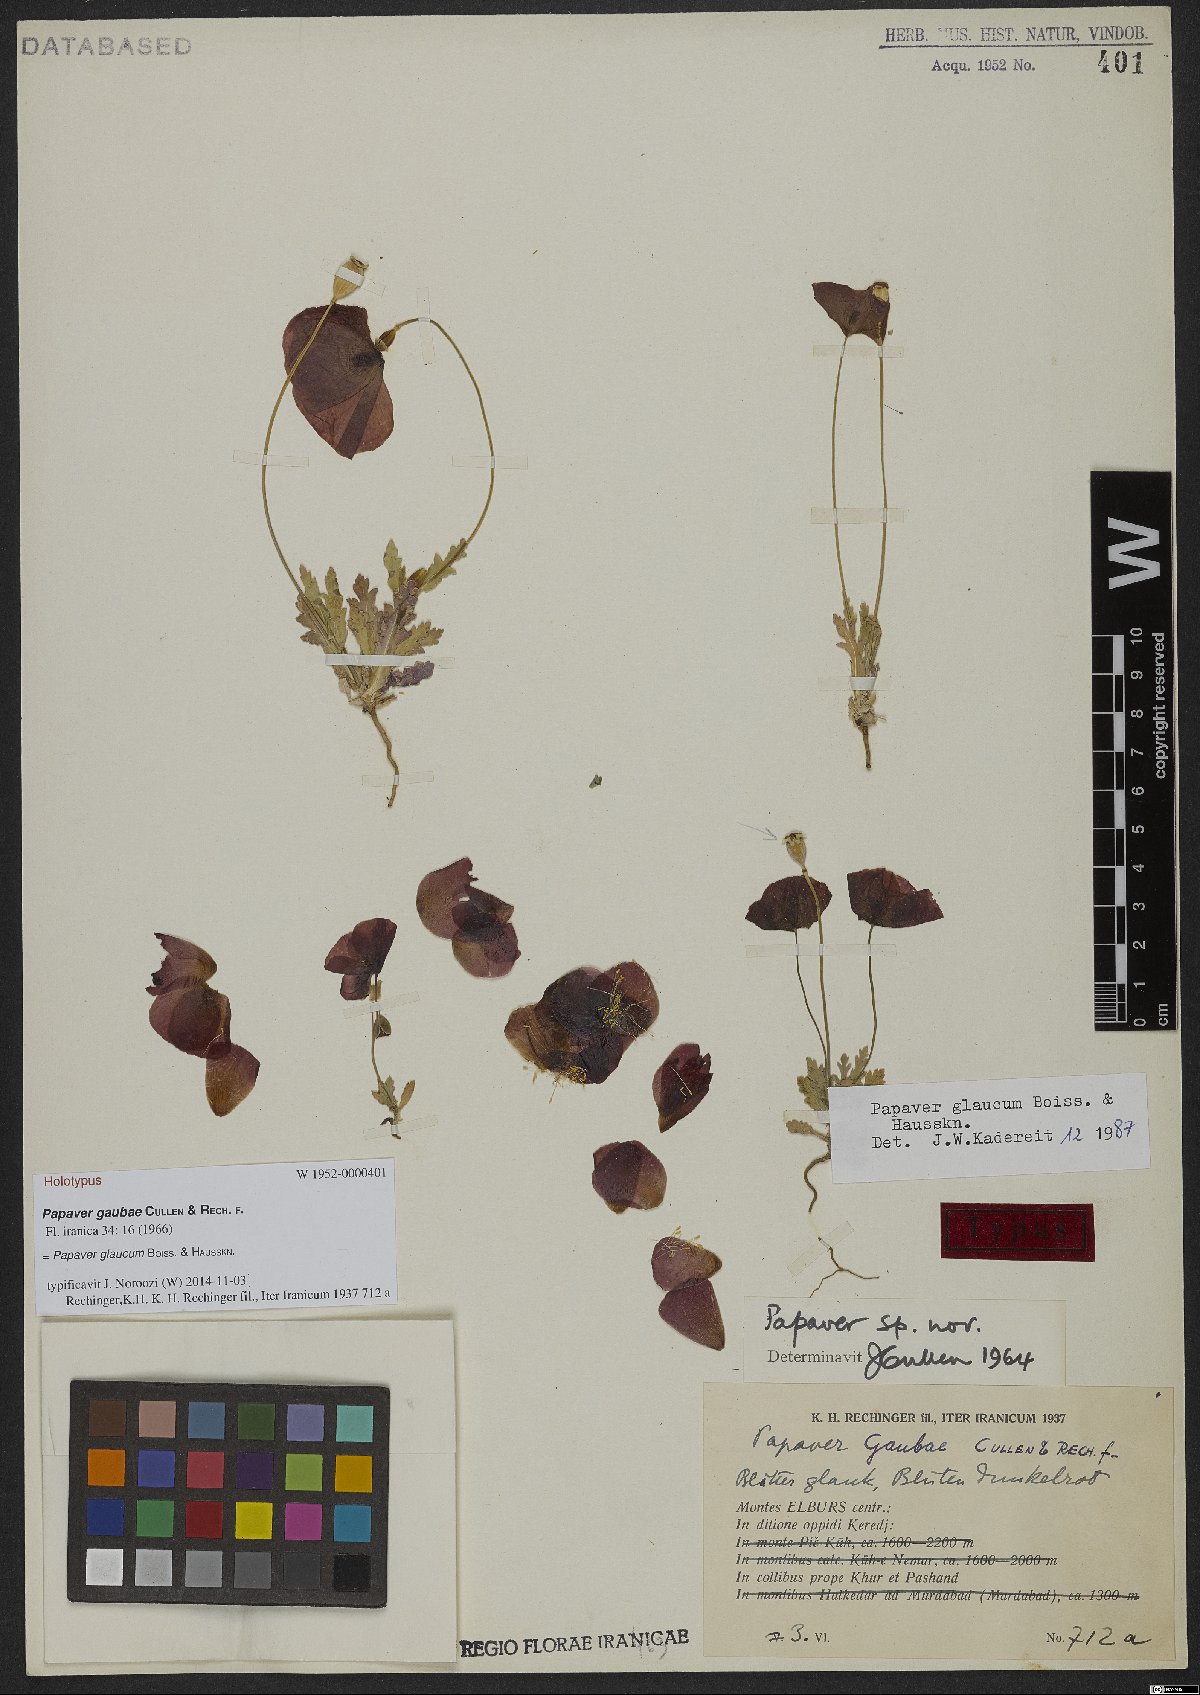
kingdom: Plantae
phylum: Tracheophyta
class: Magnoliopsida
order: Ranunculales
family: Papaveraceae
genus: Papaver
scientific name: Papaver glaucum
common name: Tulip poppy
